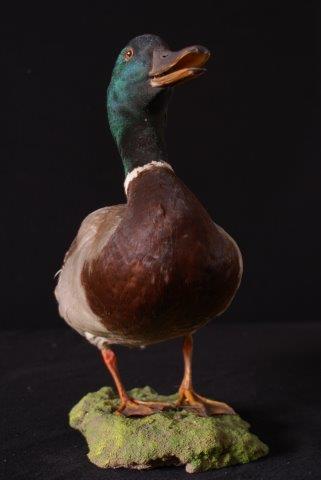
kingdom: Animalia
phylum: Chordata
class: Aves
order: Anseriformes
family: Anatidae
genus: Anas
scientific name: Anas platyrhynchos
